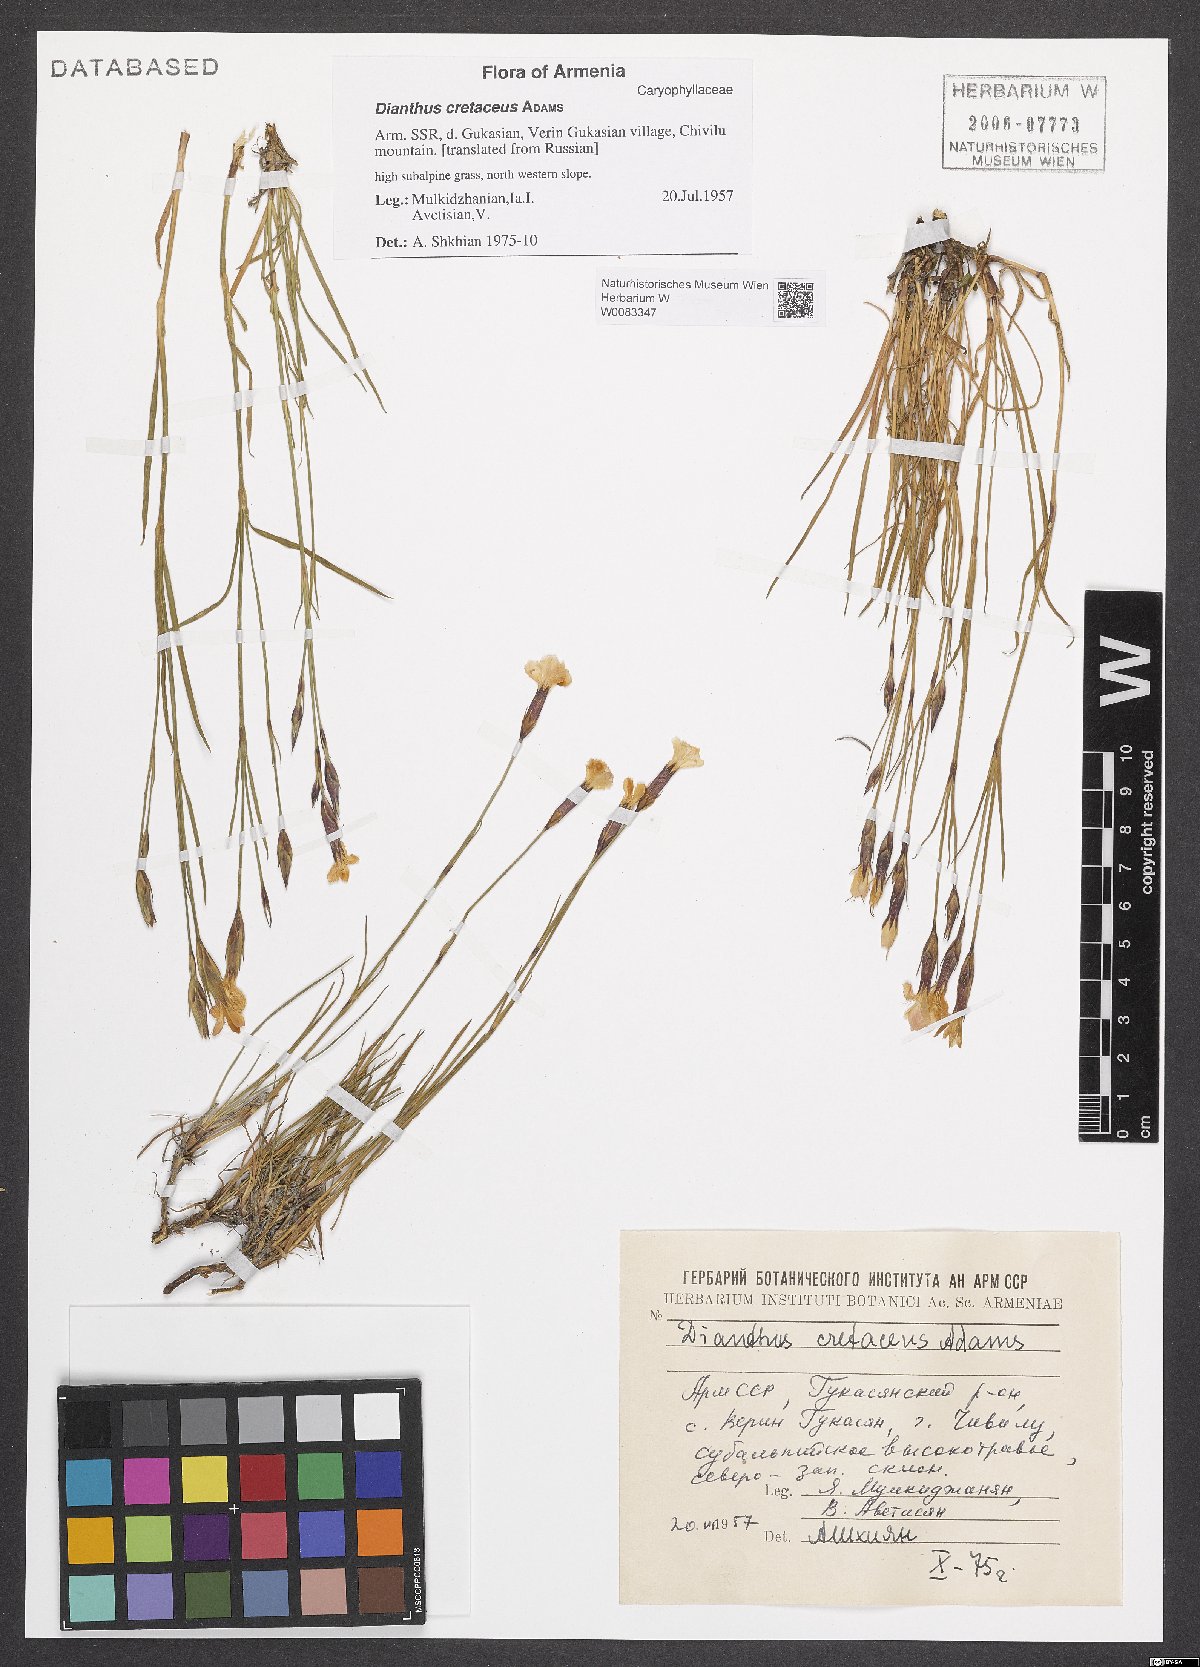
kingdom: Plantae
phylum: Tracheophyta
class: Magnoliopsida
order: Caryophyllales
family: Caryophyllaceae
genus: Dianthus
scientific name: Dianthus cretaceus
